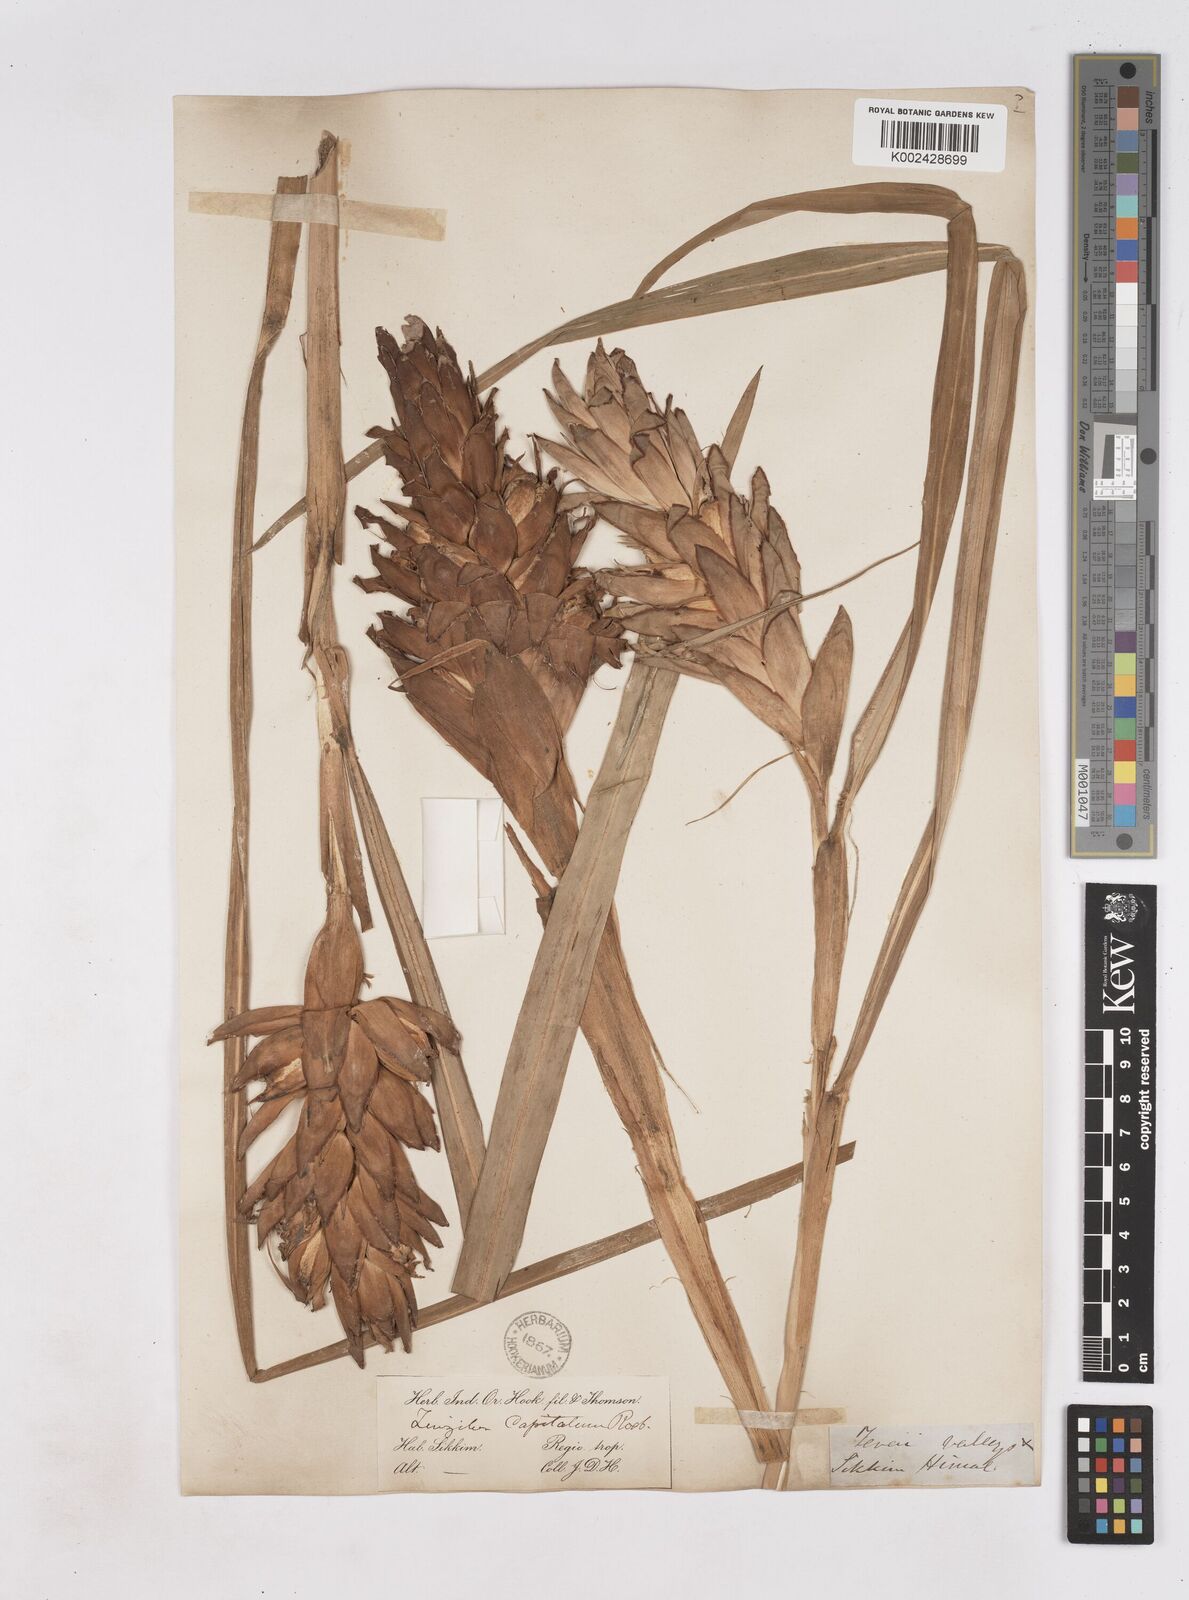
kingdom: Plantae
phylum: Tracheophyta
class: Liliopsida
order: Zingiberales
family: Zingiberaceae
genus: Zingiber
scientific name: Zingiber capitatum
